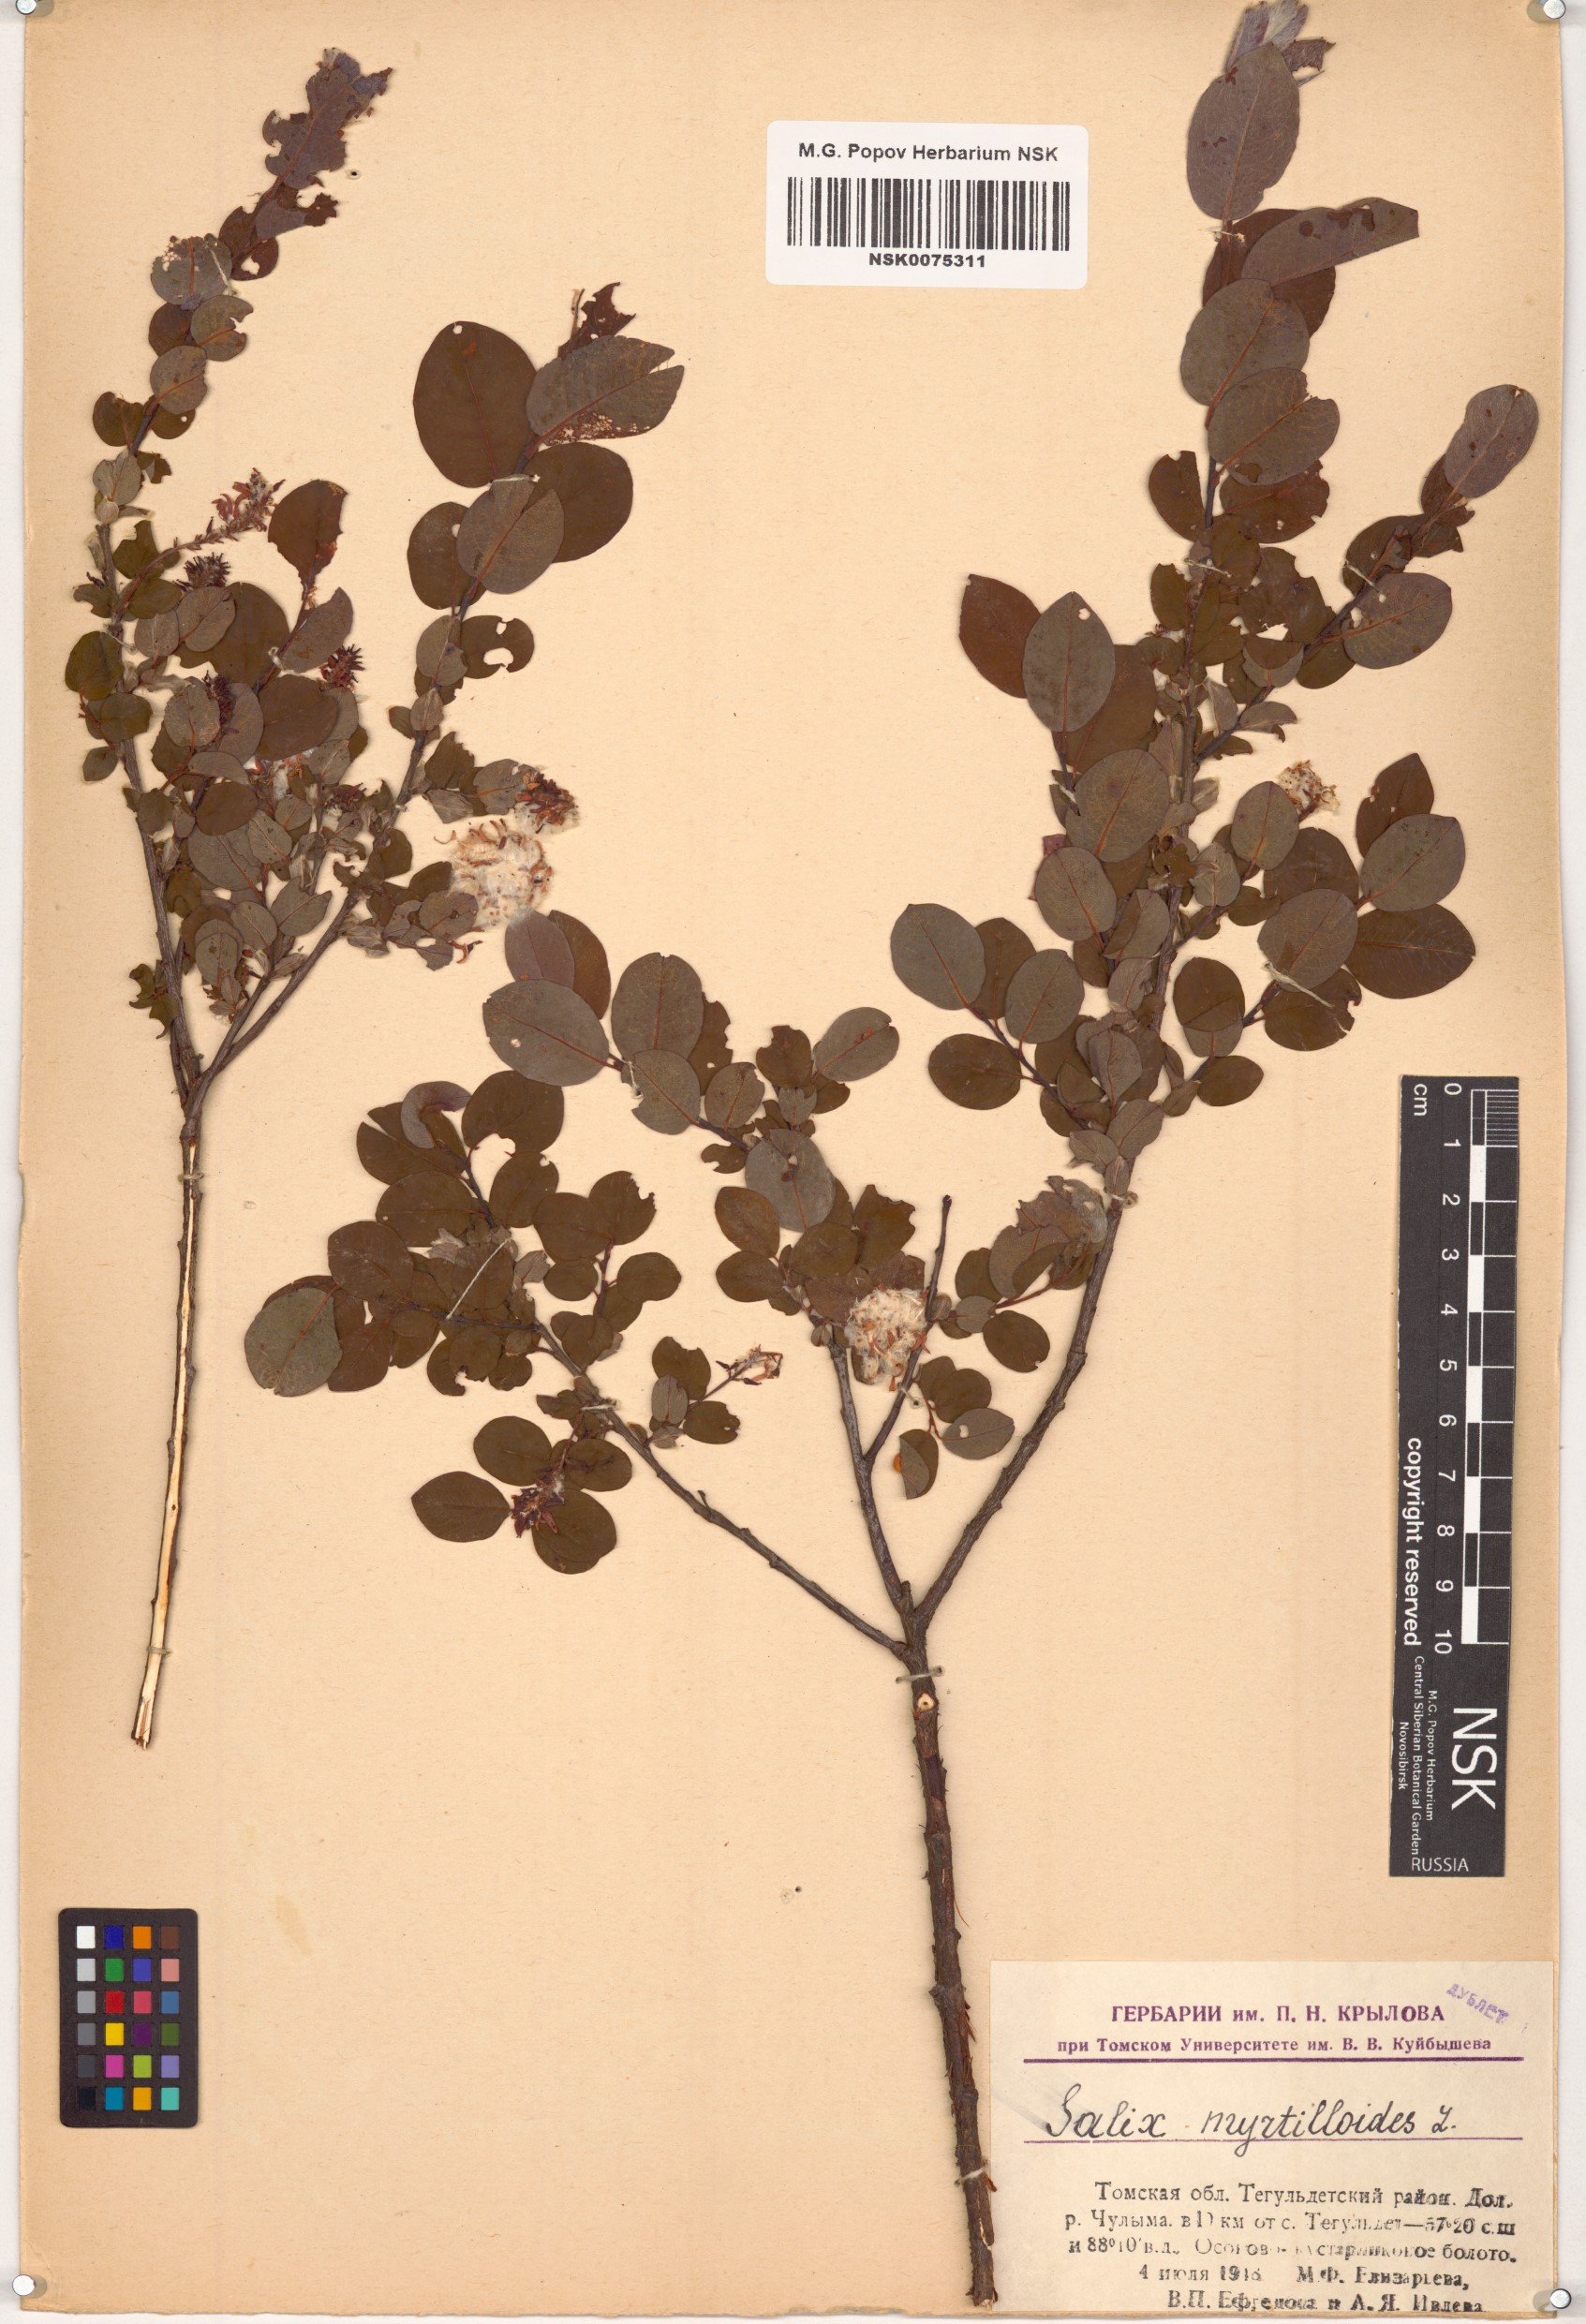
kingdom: Plantae
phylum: Tracheophyta
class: Magnoliopsida
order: Malpighiales
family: Salicaceae
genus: Salix
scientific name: Salix myrtilloides
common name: Myrtle-leaved willow
